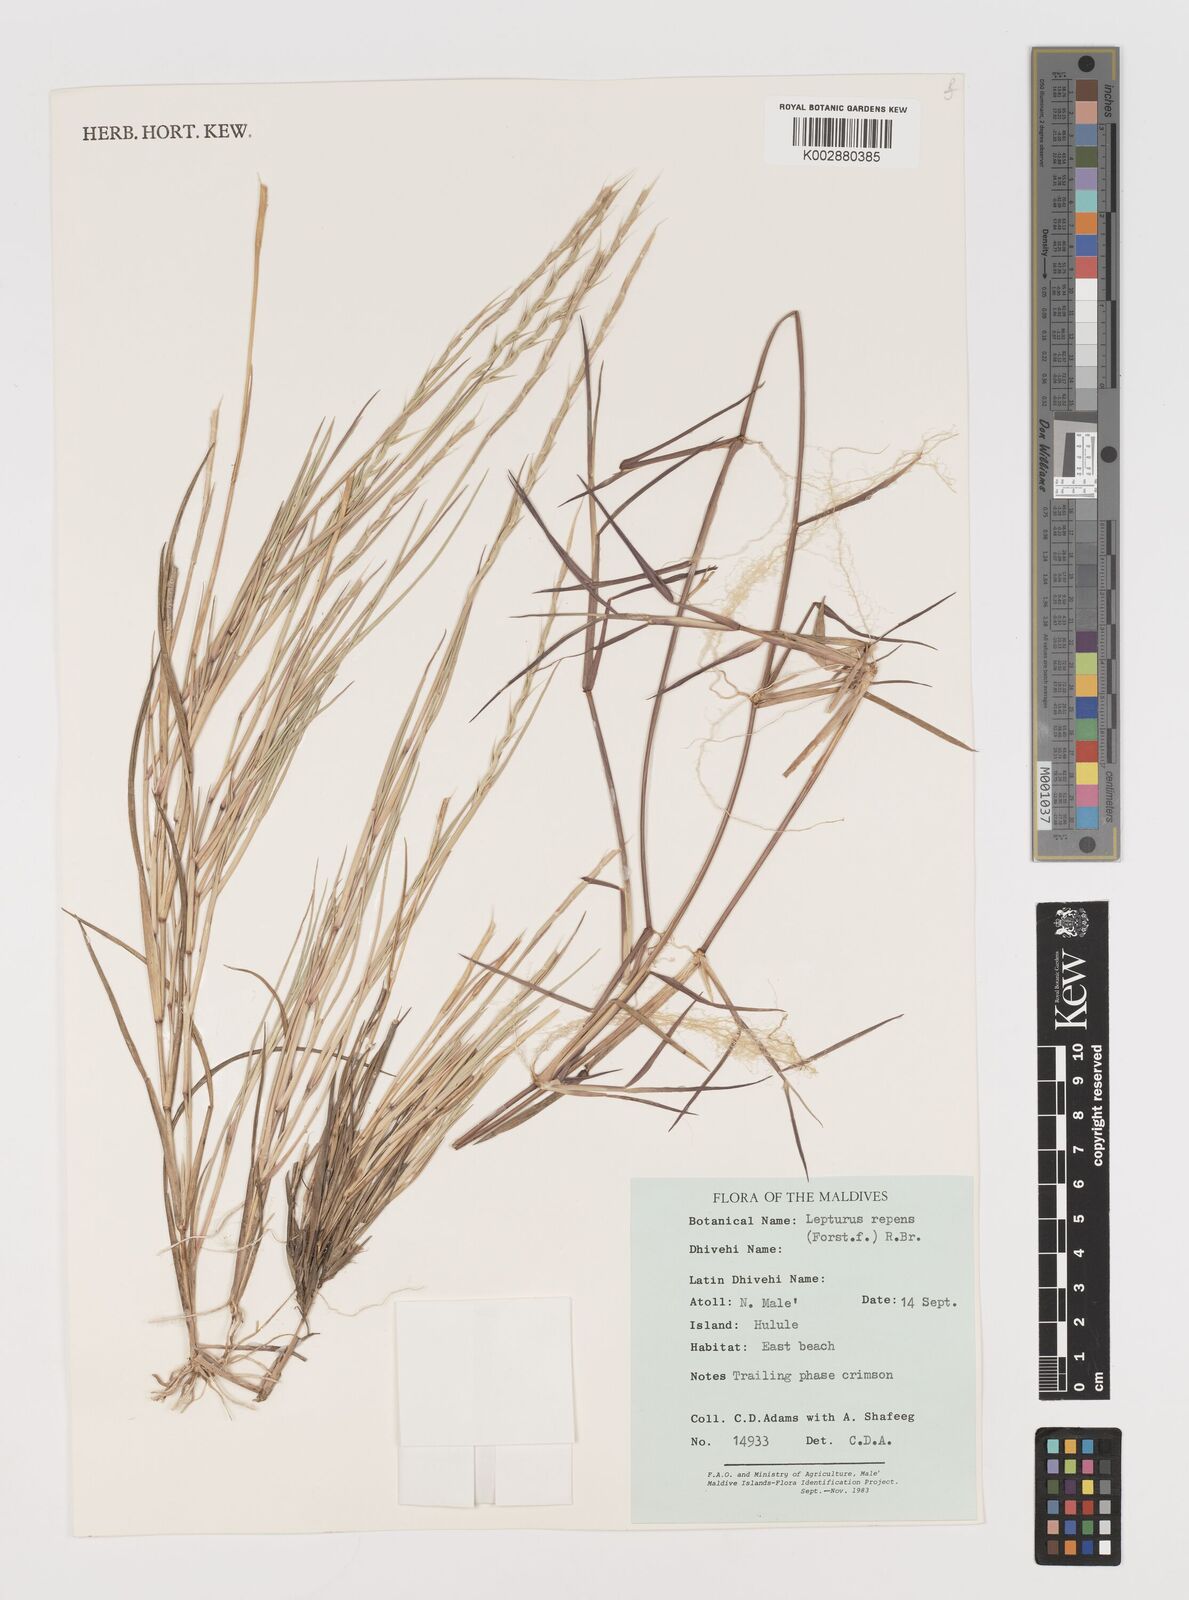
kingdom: Plantae
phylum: Tracheophyta
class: Liliopsida
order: Poales
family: Poaceae
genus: Lepturus
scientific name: Lepturus repens
